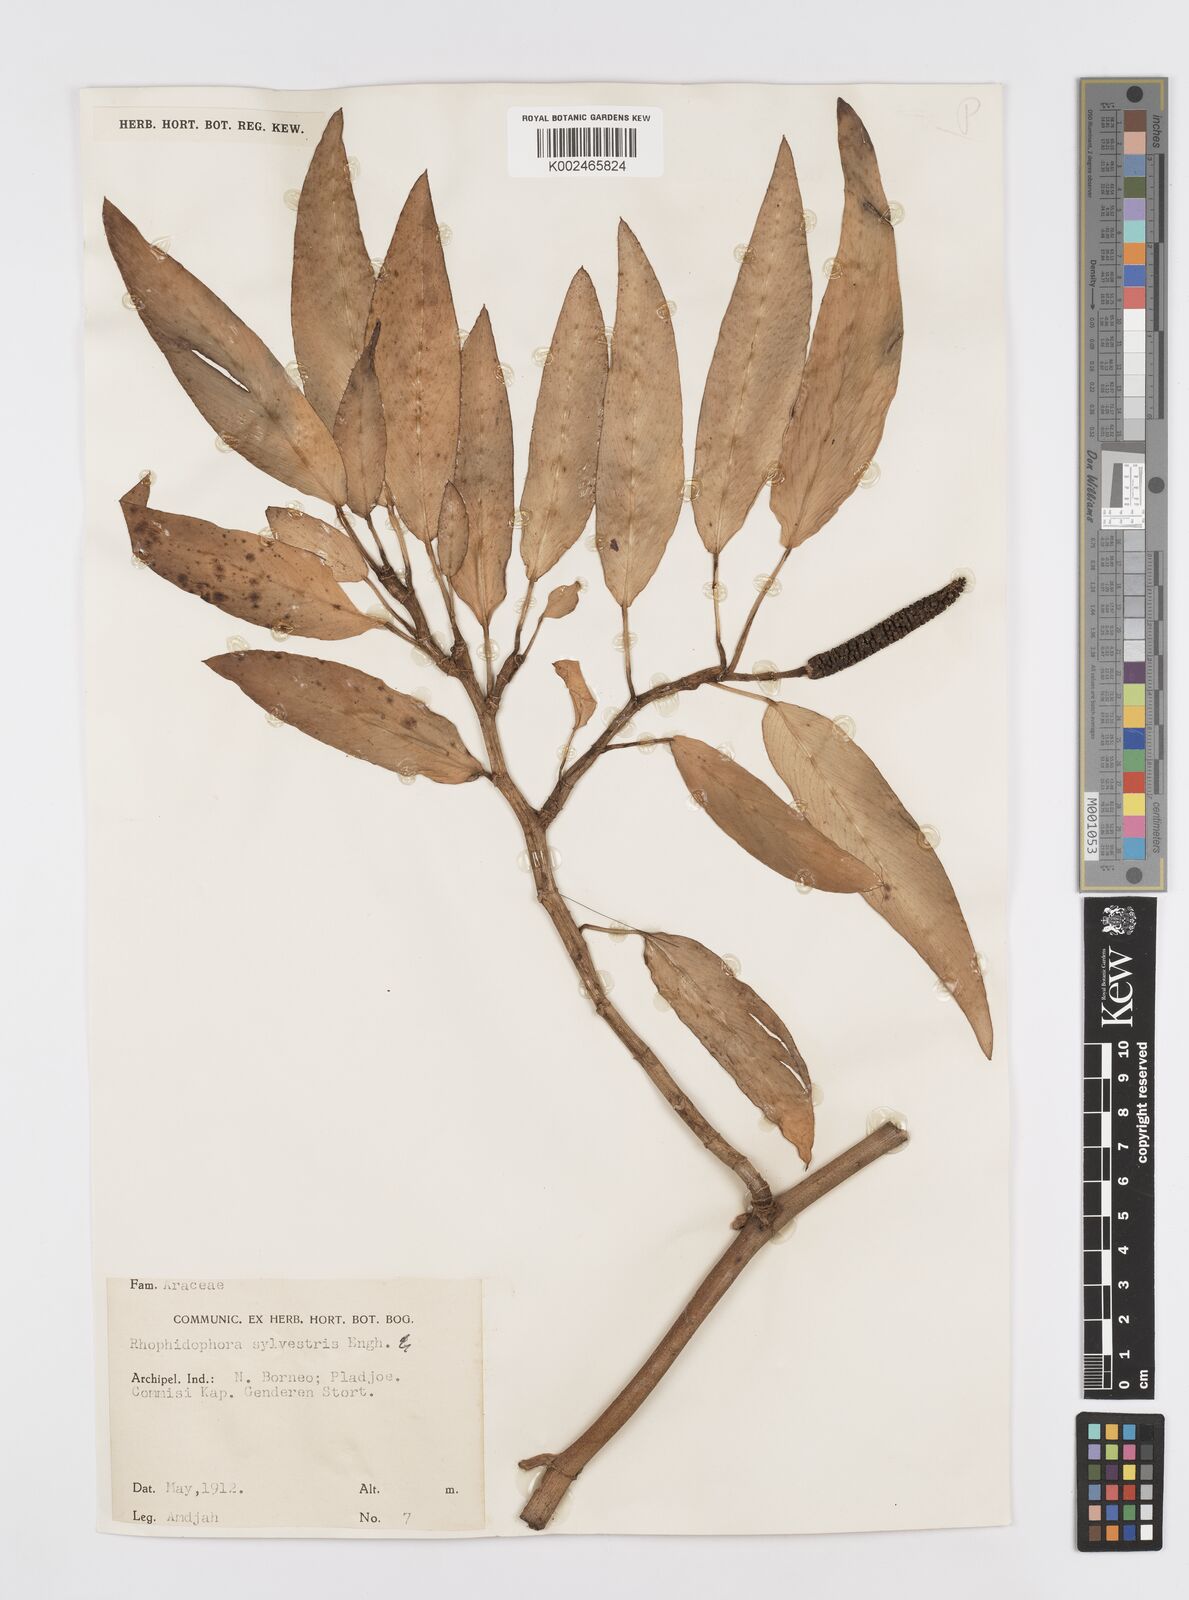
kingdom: Plantae
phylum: Tracheophyta
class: Liliopsida
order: Alismatales
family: Araceae
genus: Rhaphidophora
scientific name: Rhaphidophora minor
